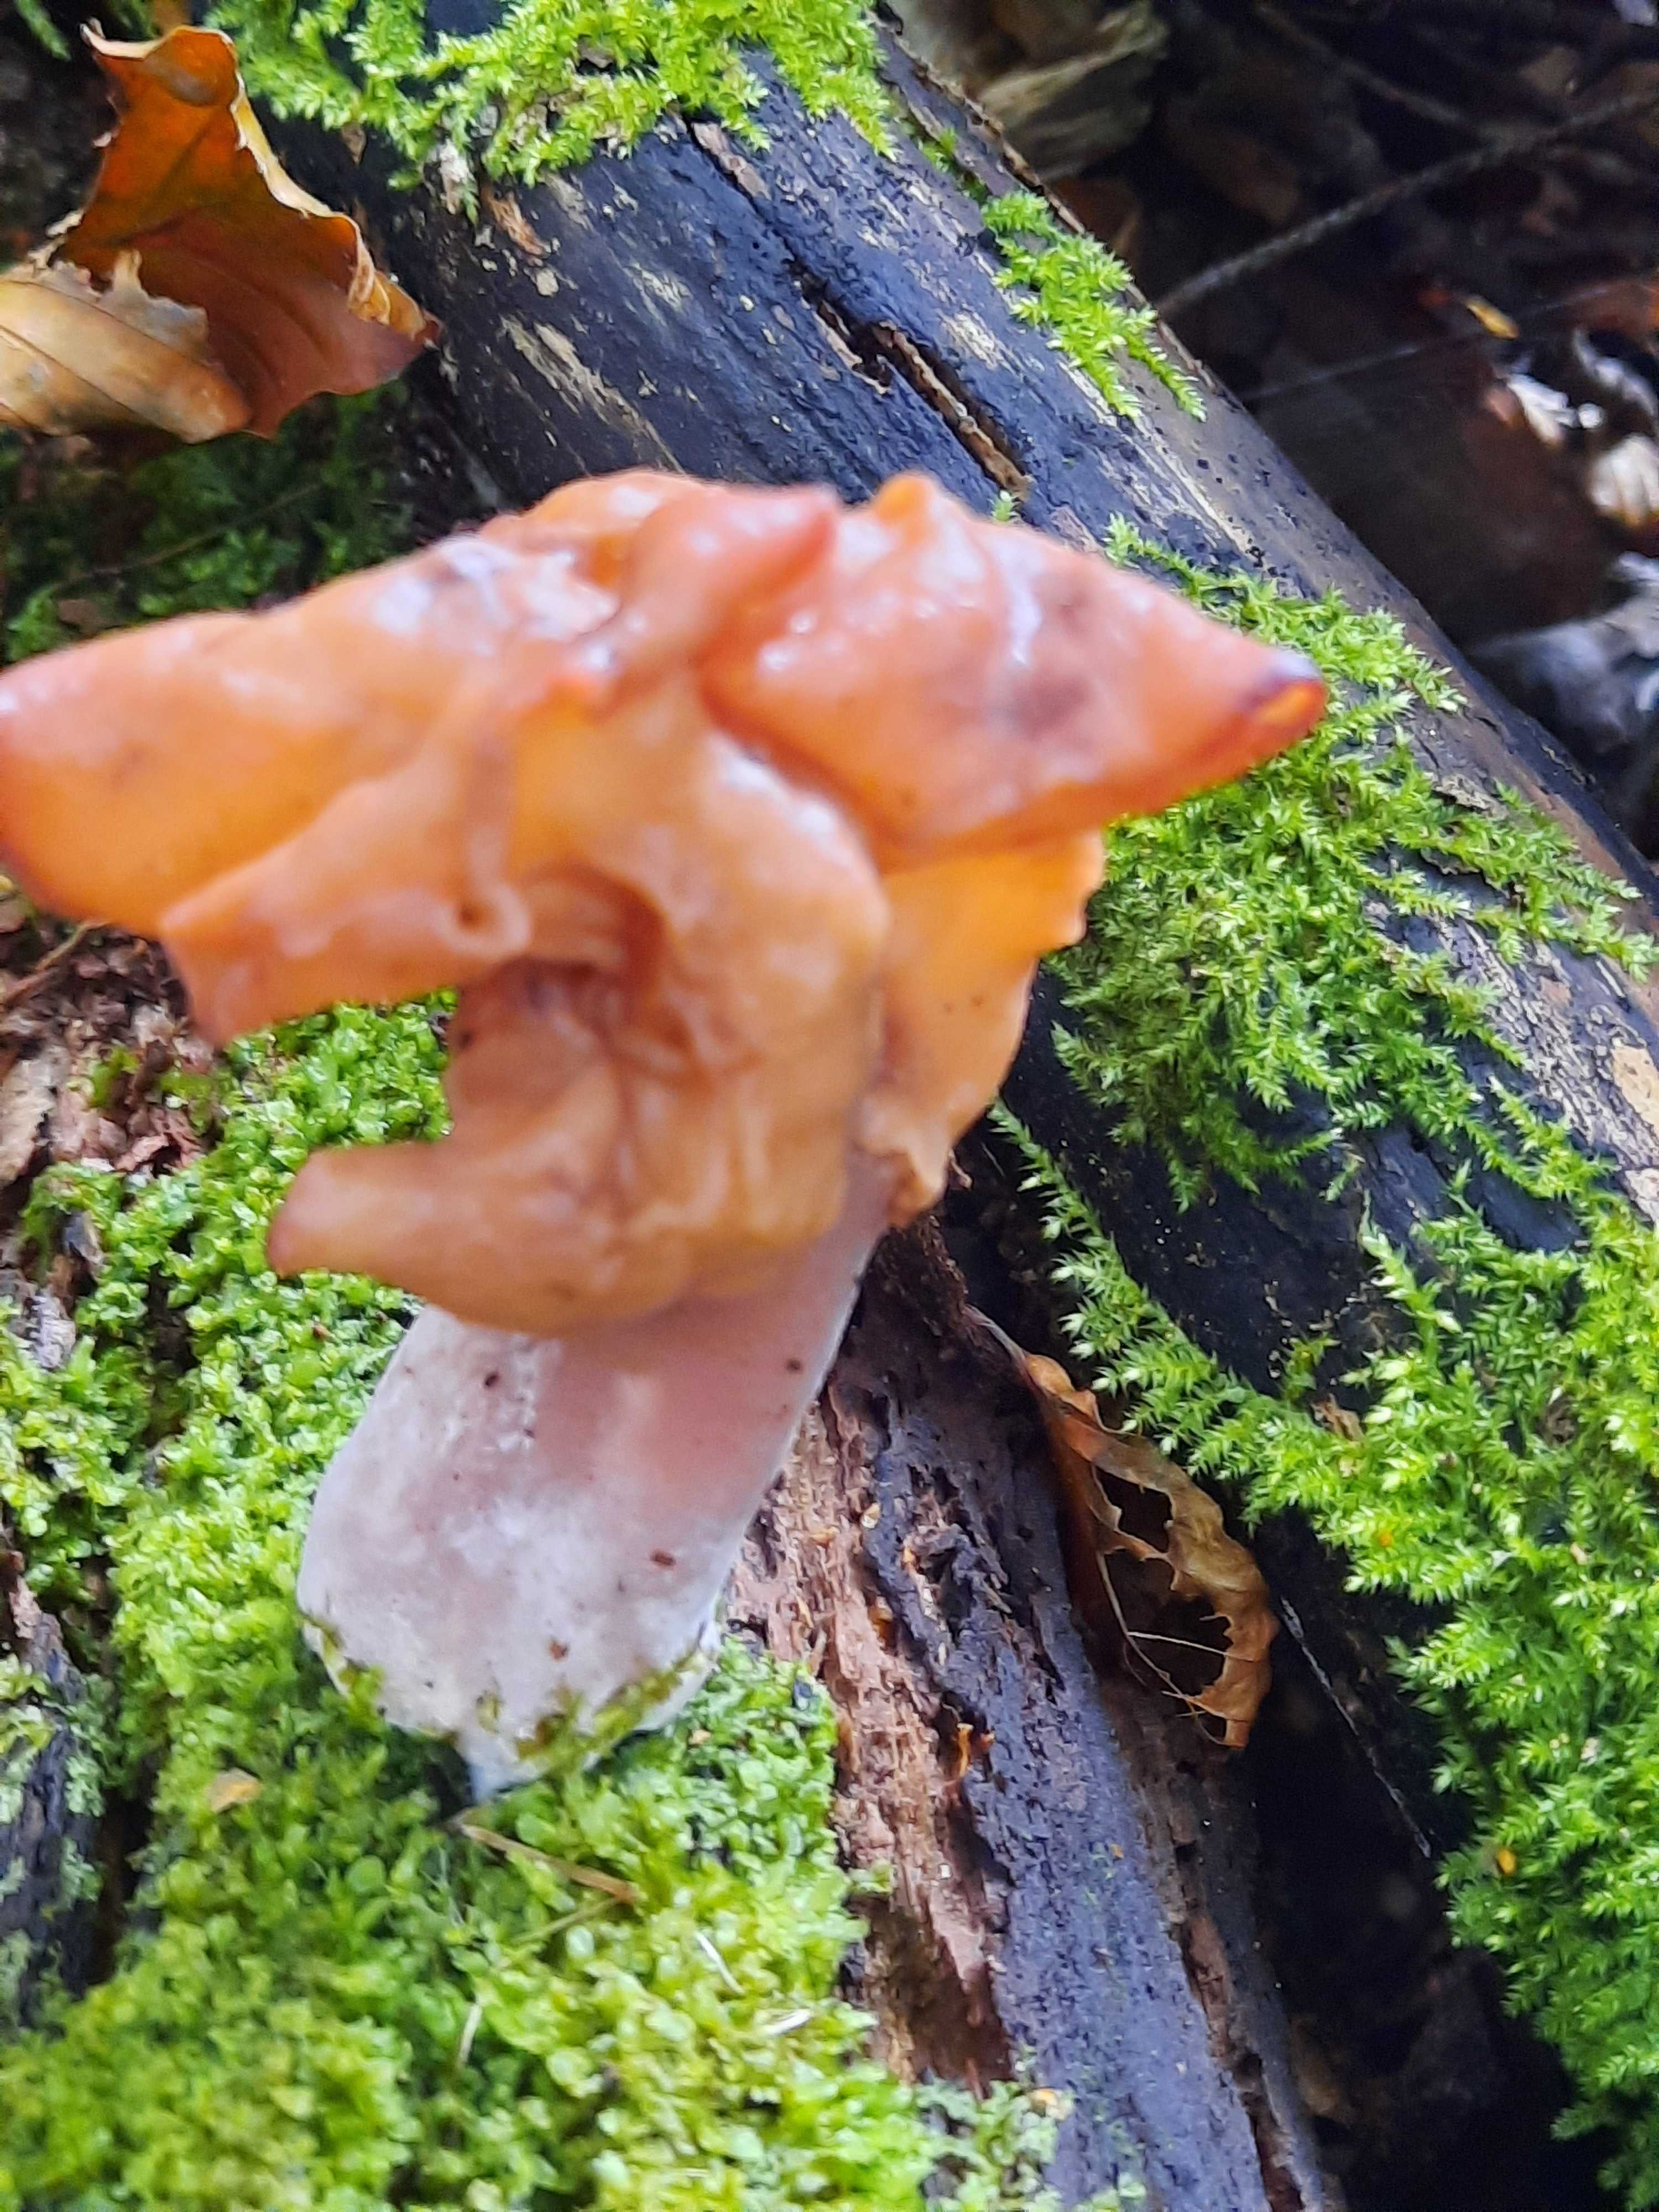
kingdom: Fungi
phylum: Ascomycota
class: Pezizomycetes
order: Pezizales
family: Discinaceae
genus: Gyromitra
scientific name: Gyromitra infula
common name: bispehue-stenmorkel
